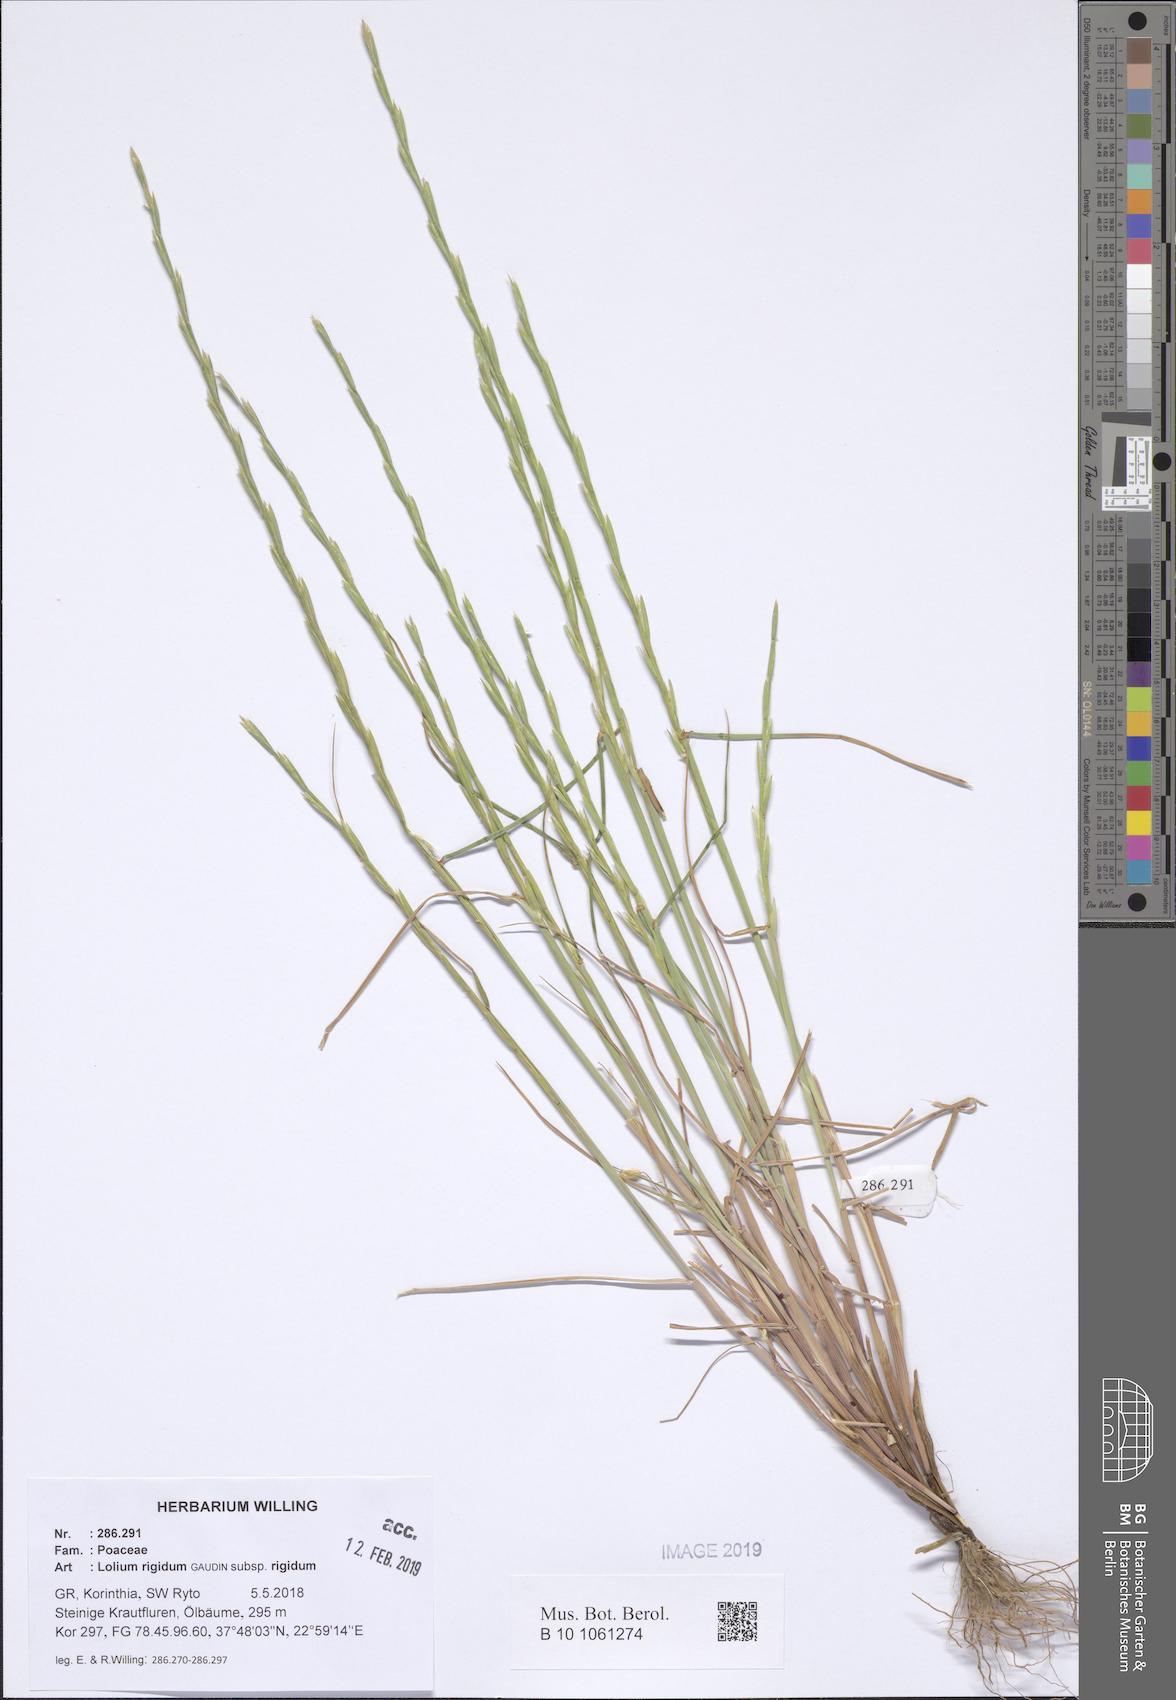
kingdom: Plantae
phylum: Tracheophyta
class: Liliopsida
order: Poales
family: Poaceae
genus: Lolium
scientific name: Lolium rigidum
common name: Wimmera ryegrass
